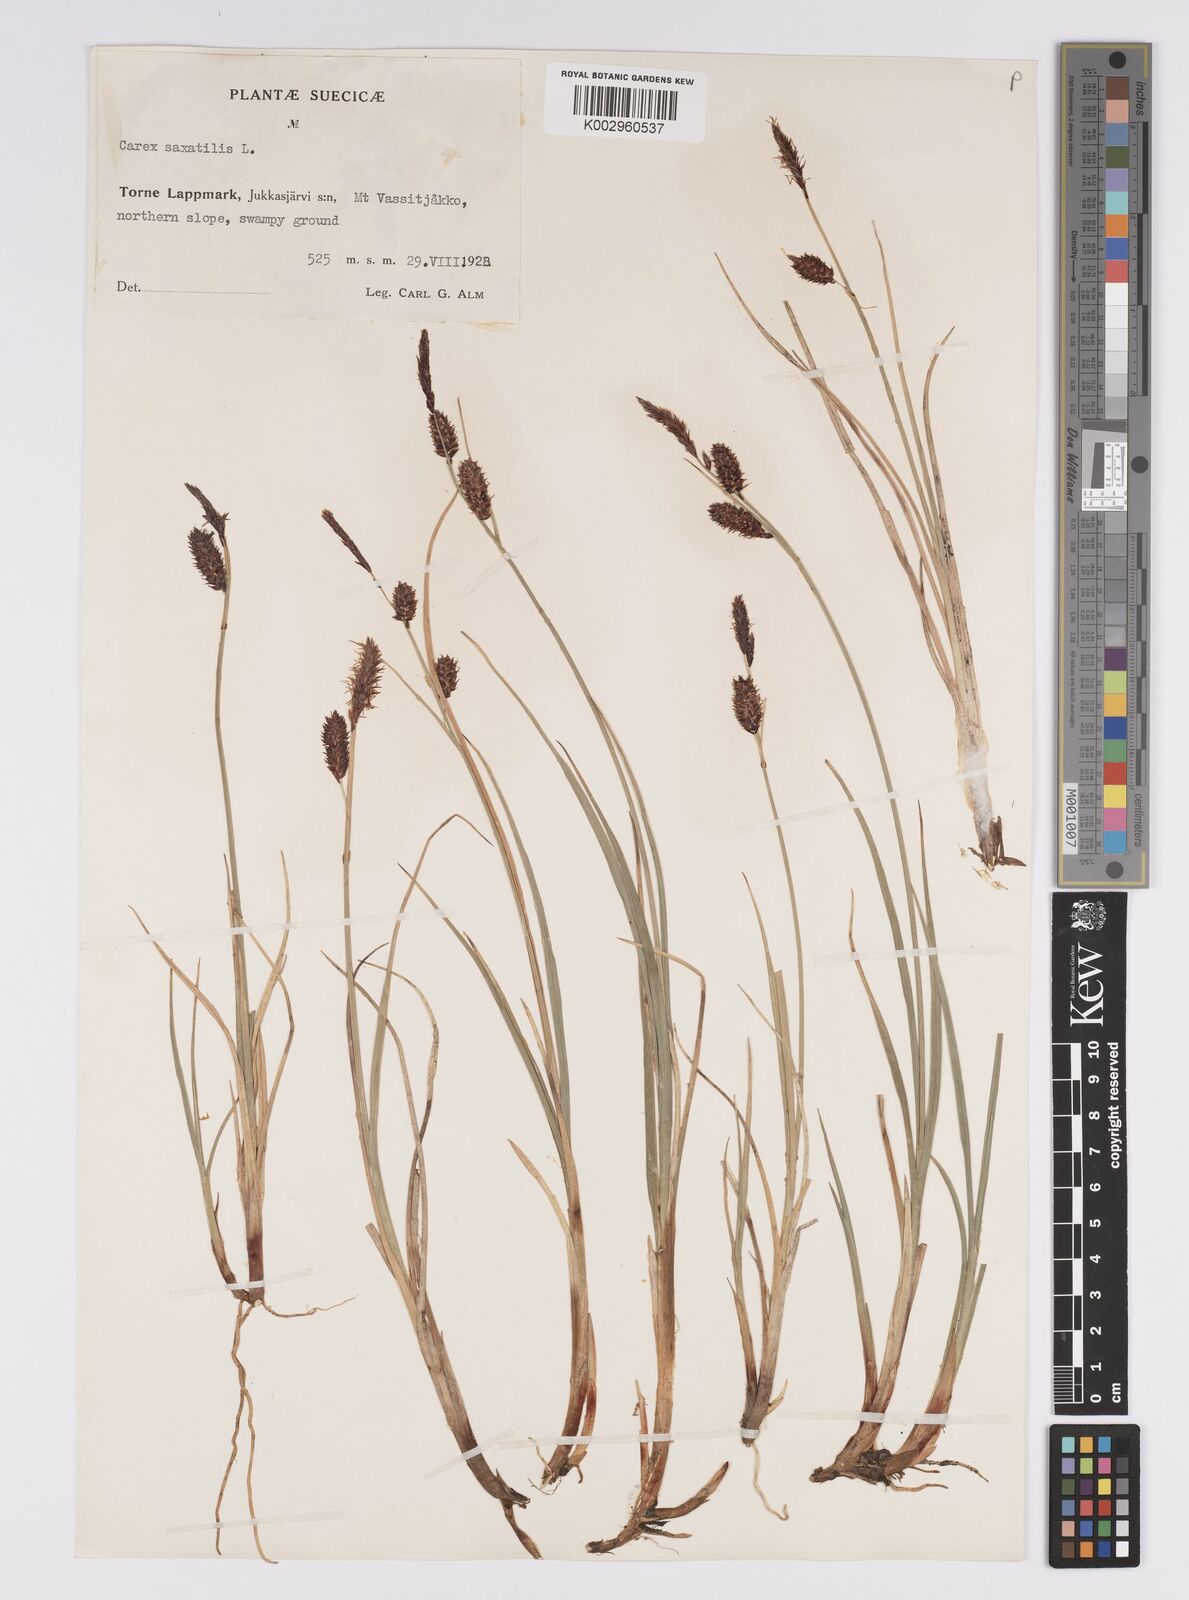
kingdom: Plantae
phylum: Tracheophyta
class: Liliopsida
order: Poales
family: Cyperaceae
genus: Carex
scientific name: Carex saxatilis
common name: Russet sedge
